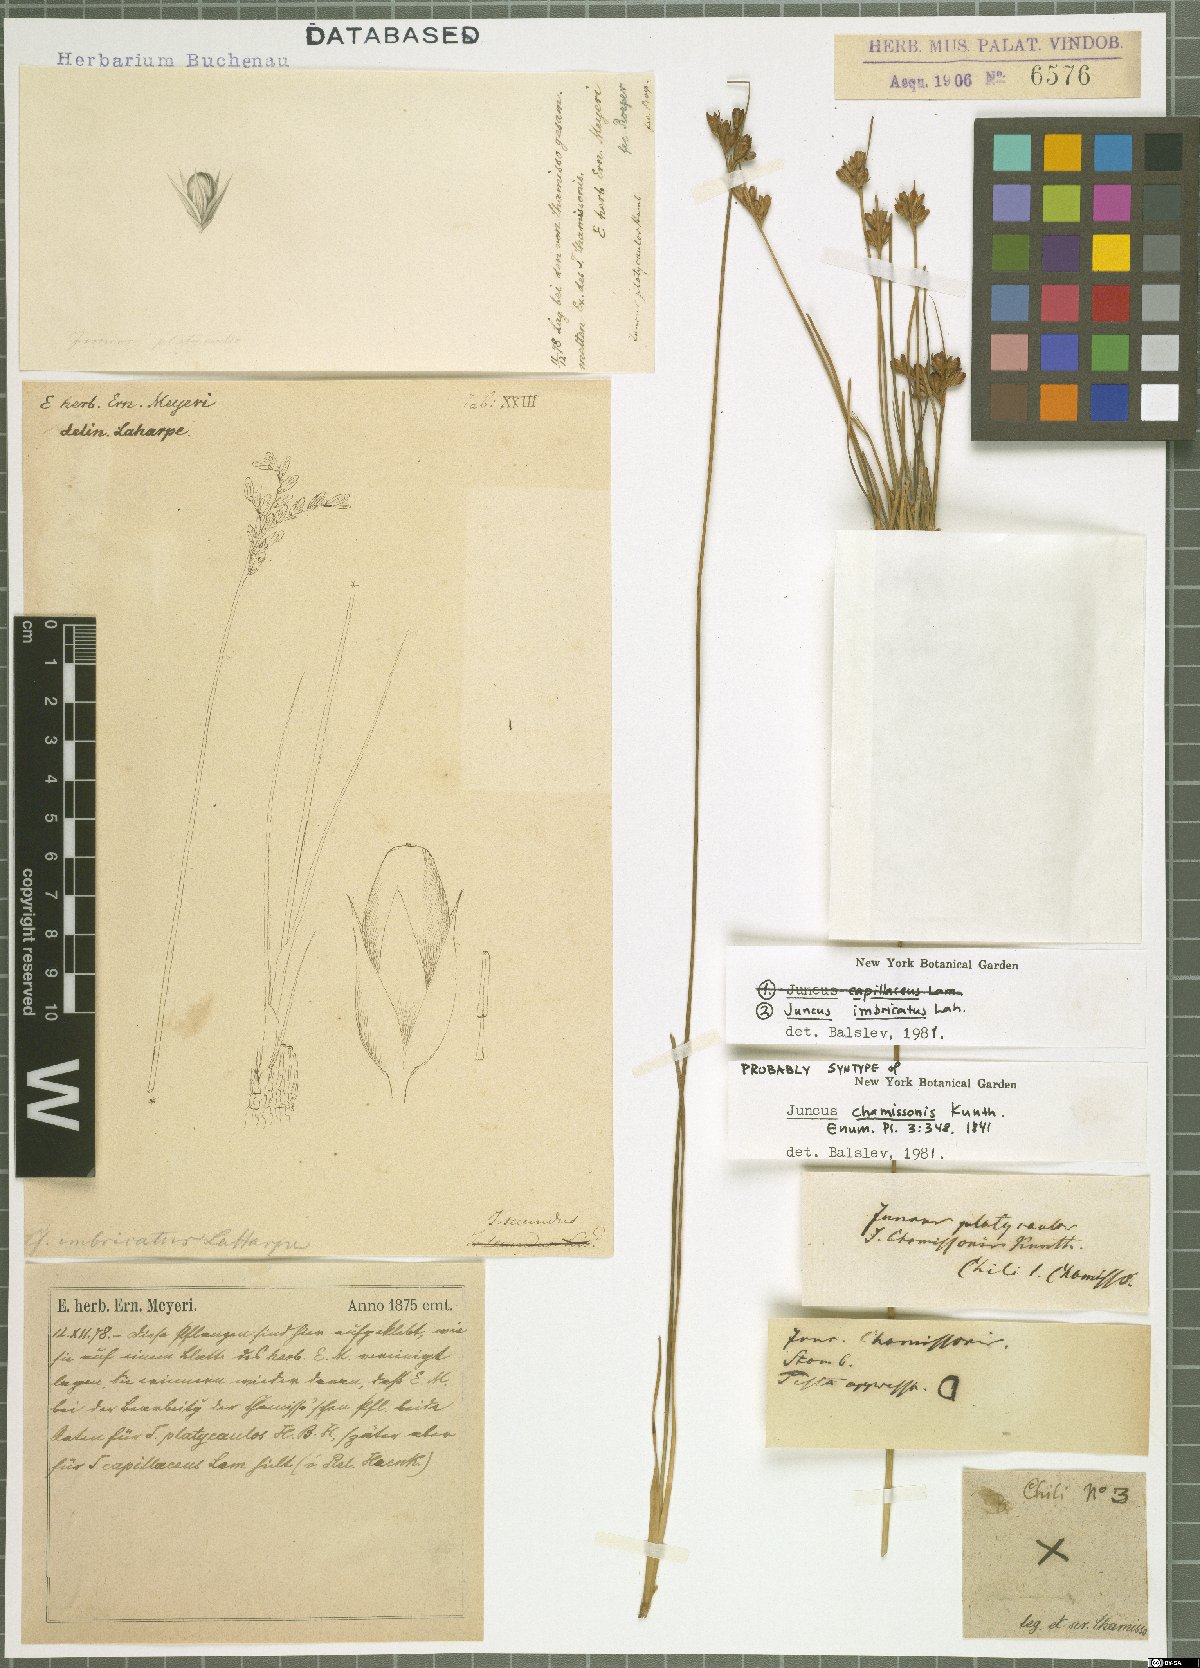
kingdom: Plantae
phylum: Tracheophyta
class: Liliopsida
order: Poales
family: Juncaceae
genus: Juncus
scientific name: Juncus imbricatus
